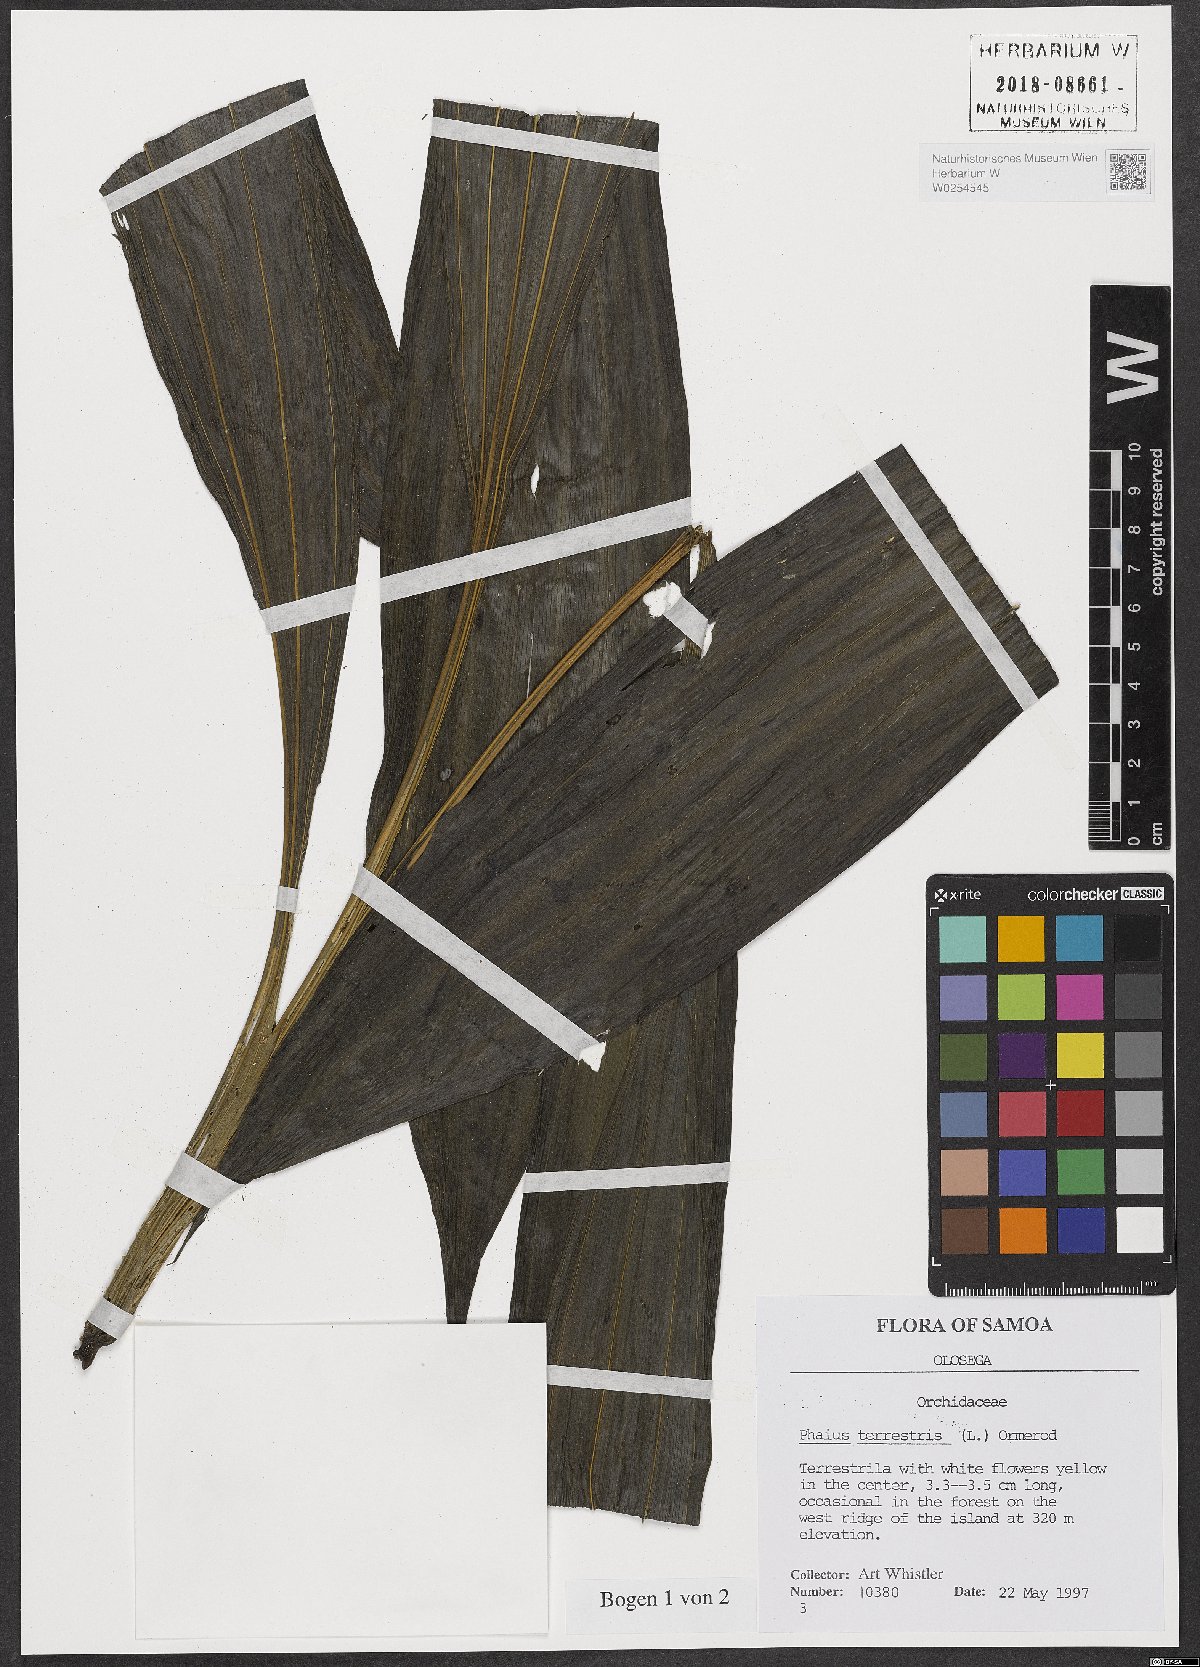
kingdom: Plantae
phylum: Tracheophyta
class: Liliopsida
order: Asparagales
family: Orchidaceae
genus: Eulophia
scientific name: Eulophia terrestris
